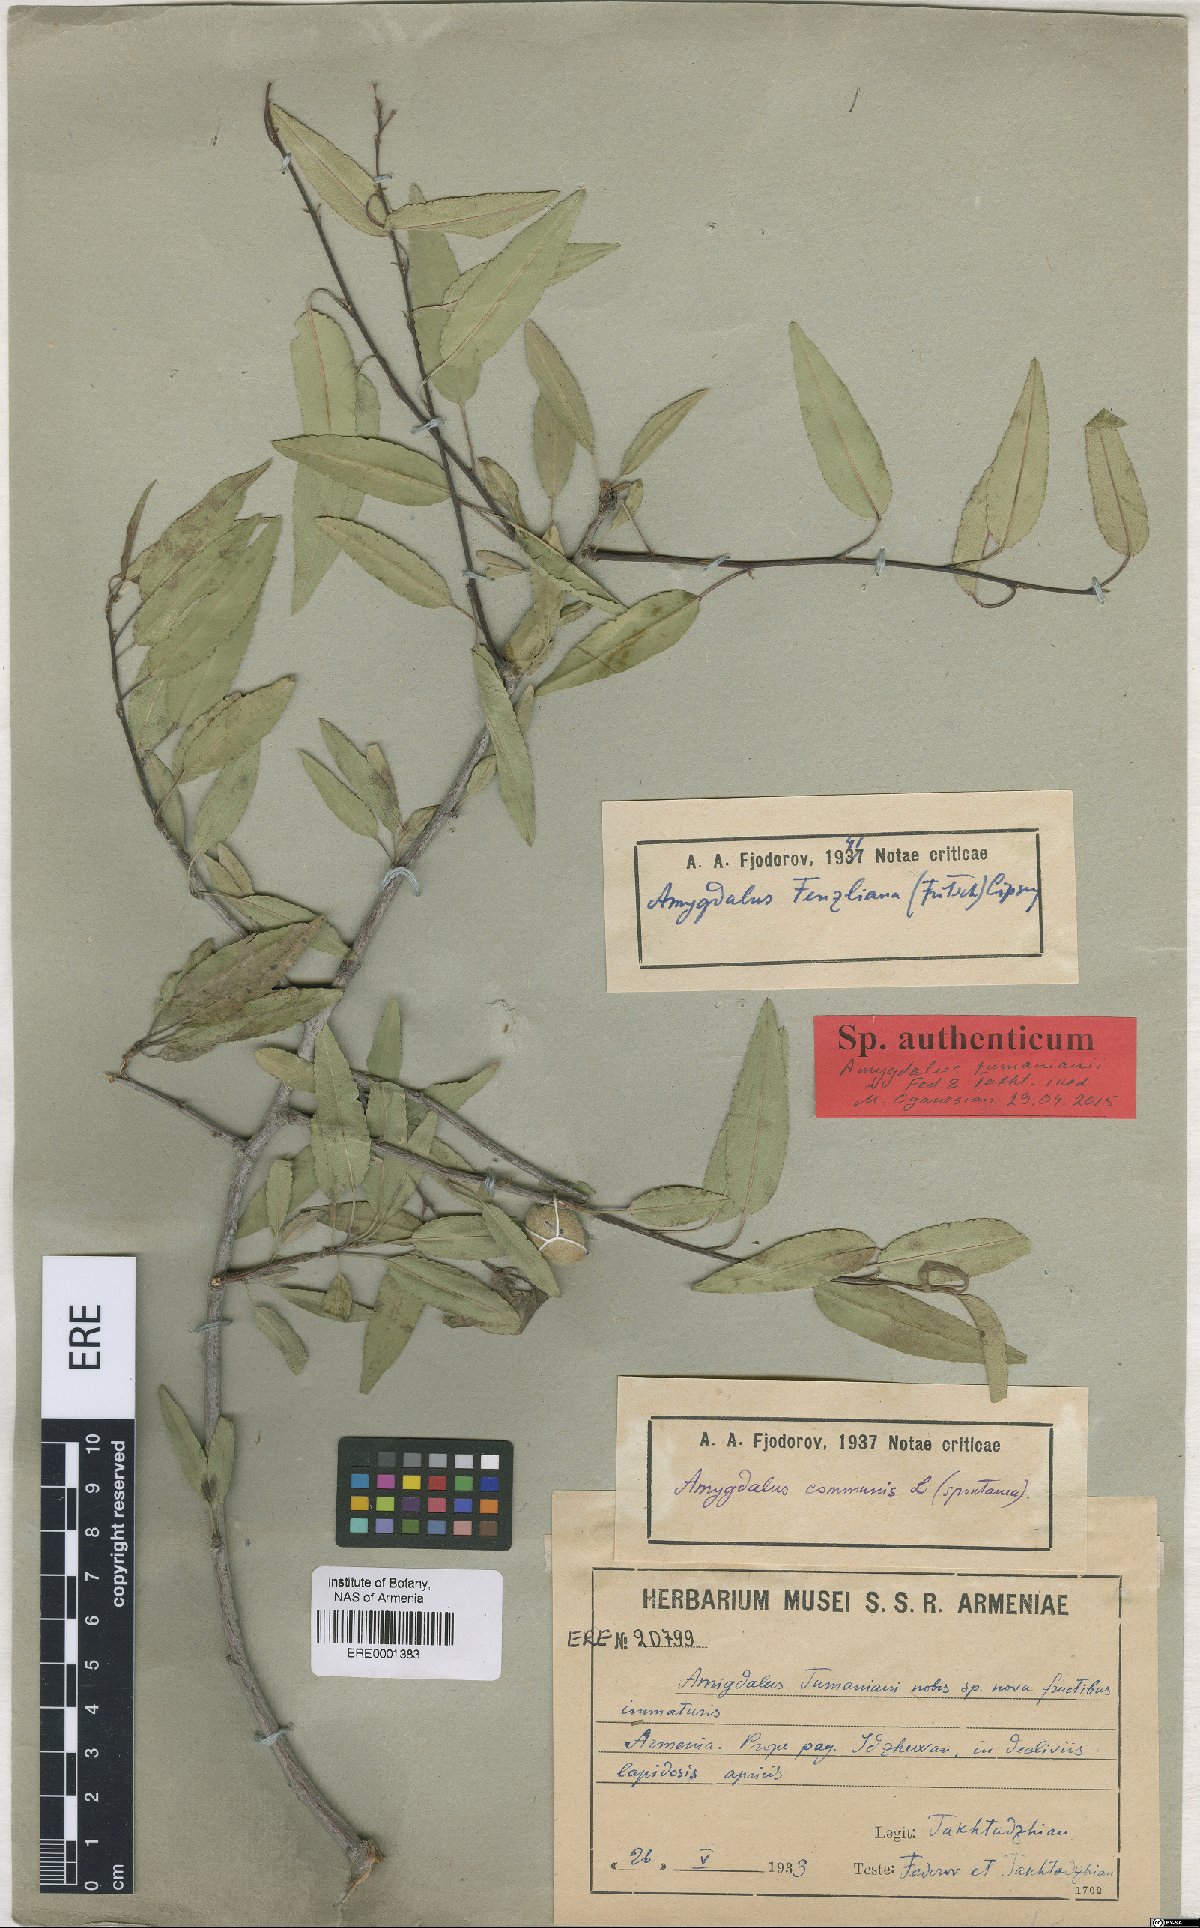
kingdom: Plantae
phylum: Tracheophyta
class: Magnoliopsida
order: Rosales
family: Rosaceae
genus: Prunus
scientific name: Prunus
